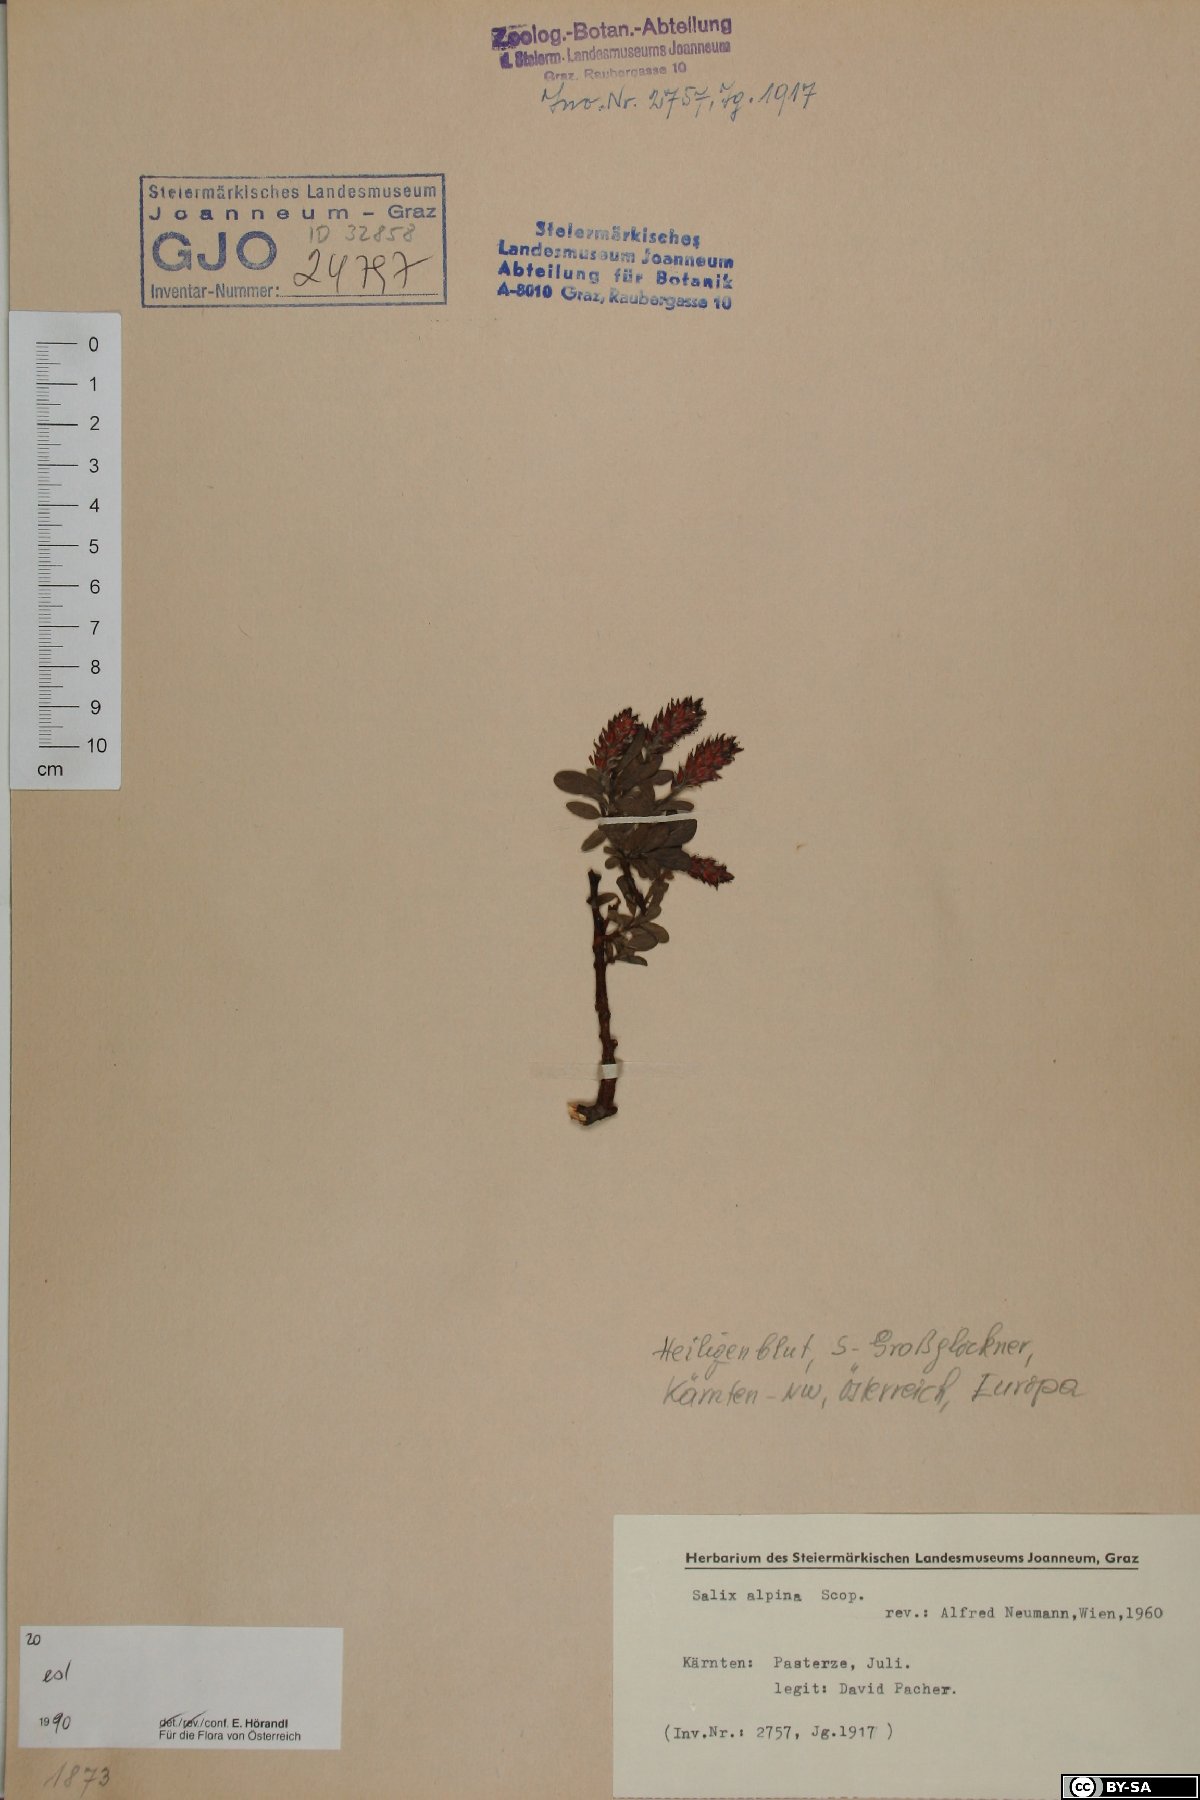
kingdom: Plantae
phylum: Tracheophyta
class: Magnoliopsida
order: Malpighiales
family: Salicaceae
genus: Salix
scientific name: Salix alpina
